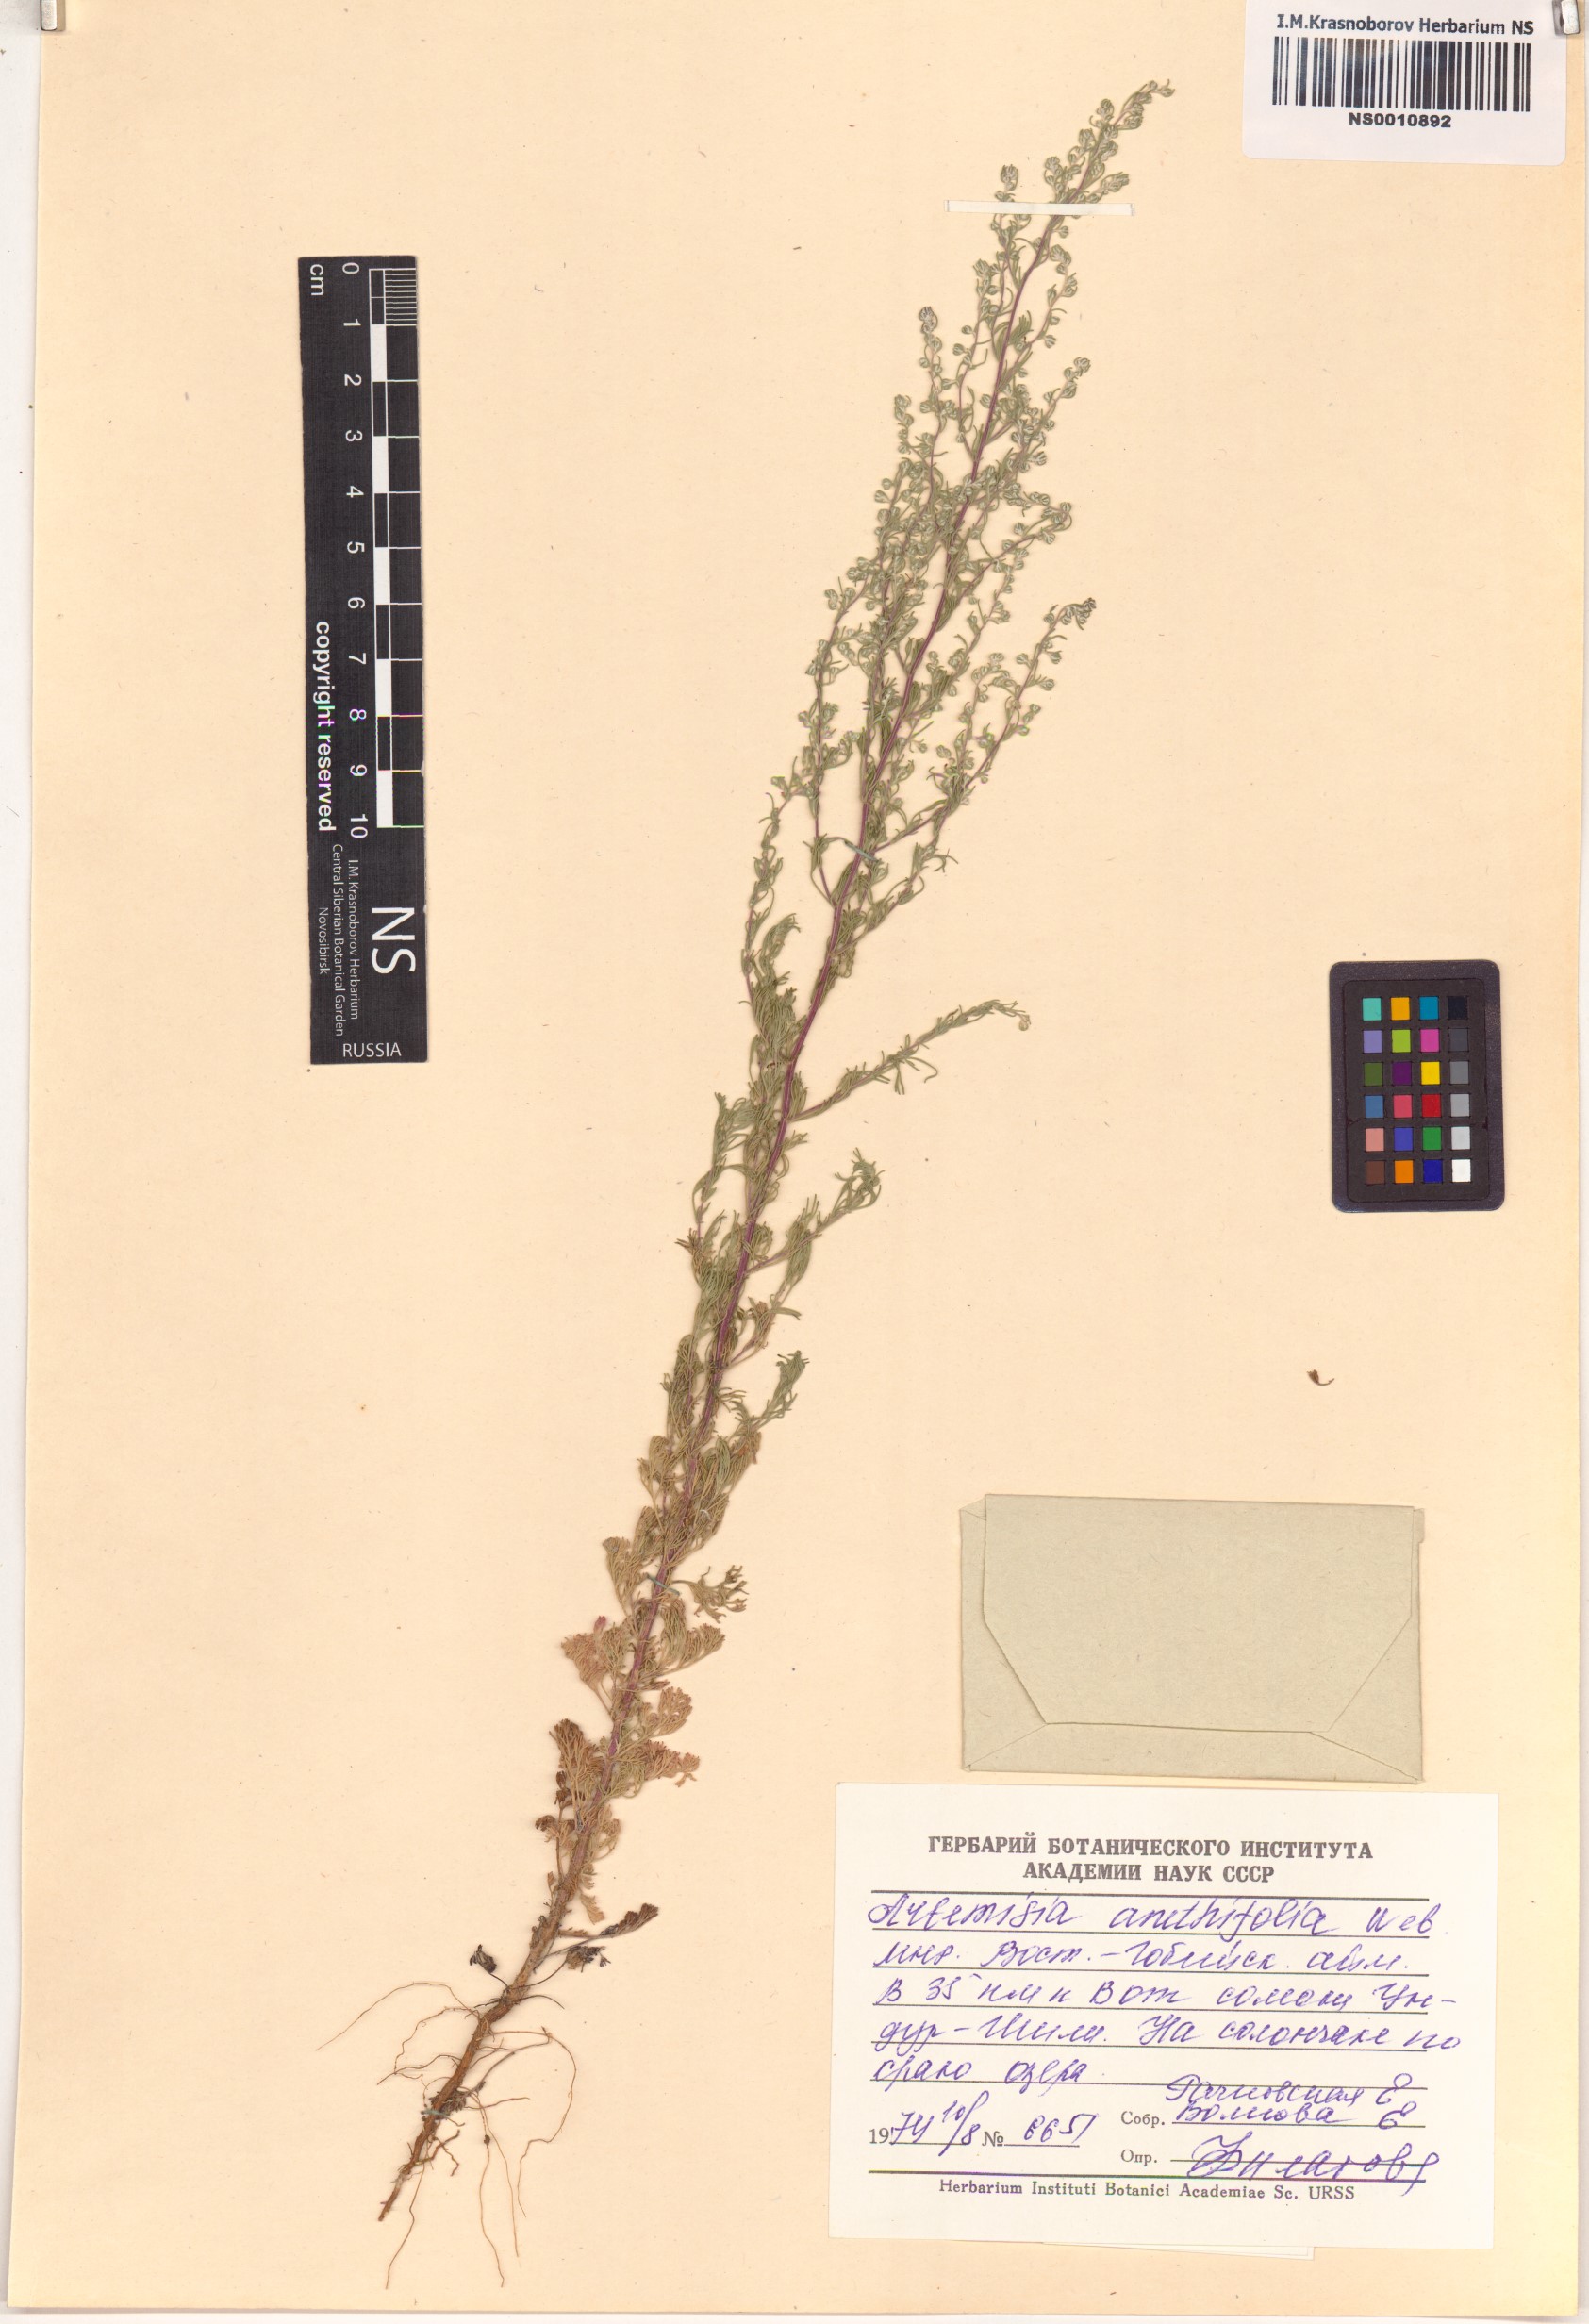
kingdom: Plantae
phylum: Tracheophyta
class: Magnoliopsida
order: Asterales
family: Asteraceae
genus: Artemisia
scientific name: Artemisia anethifolia
